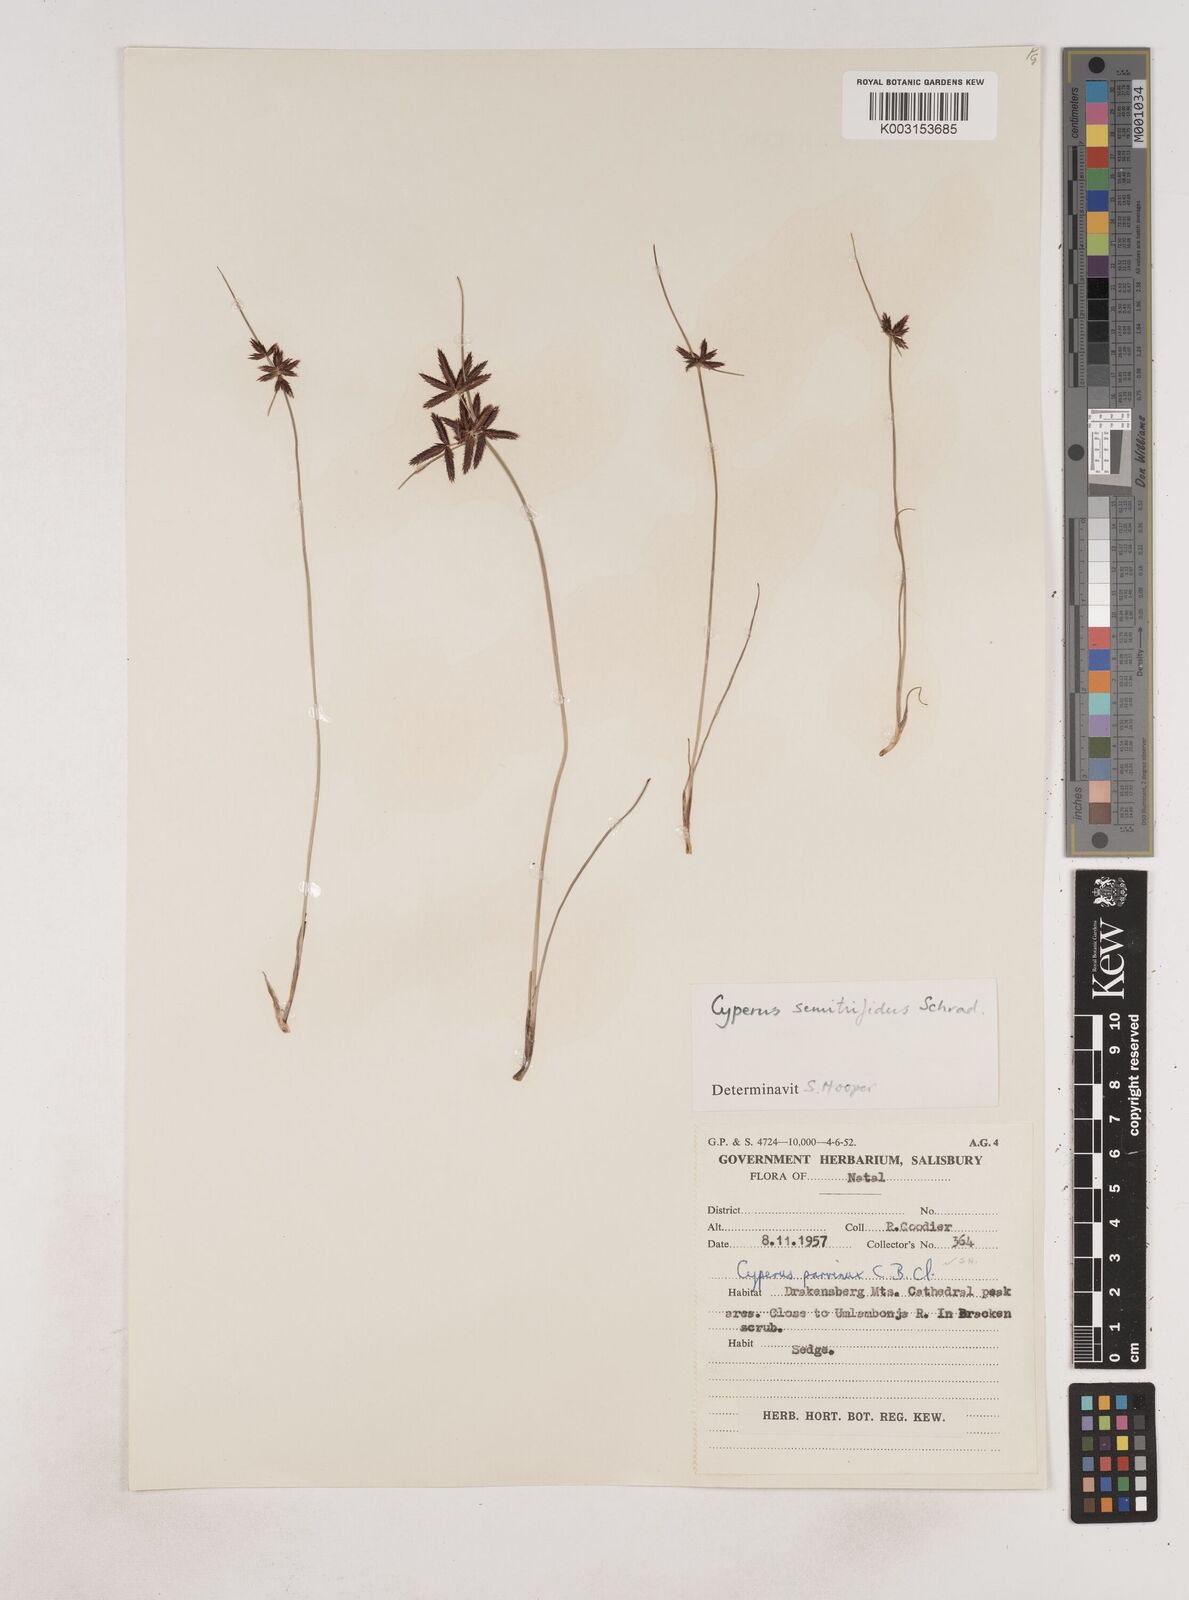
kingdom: Plantae
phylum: Tracheophyta
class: Liliopsida
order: Poales
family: Cyperaceae
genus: Cyperus
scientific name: Cyperus semitrifidus
